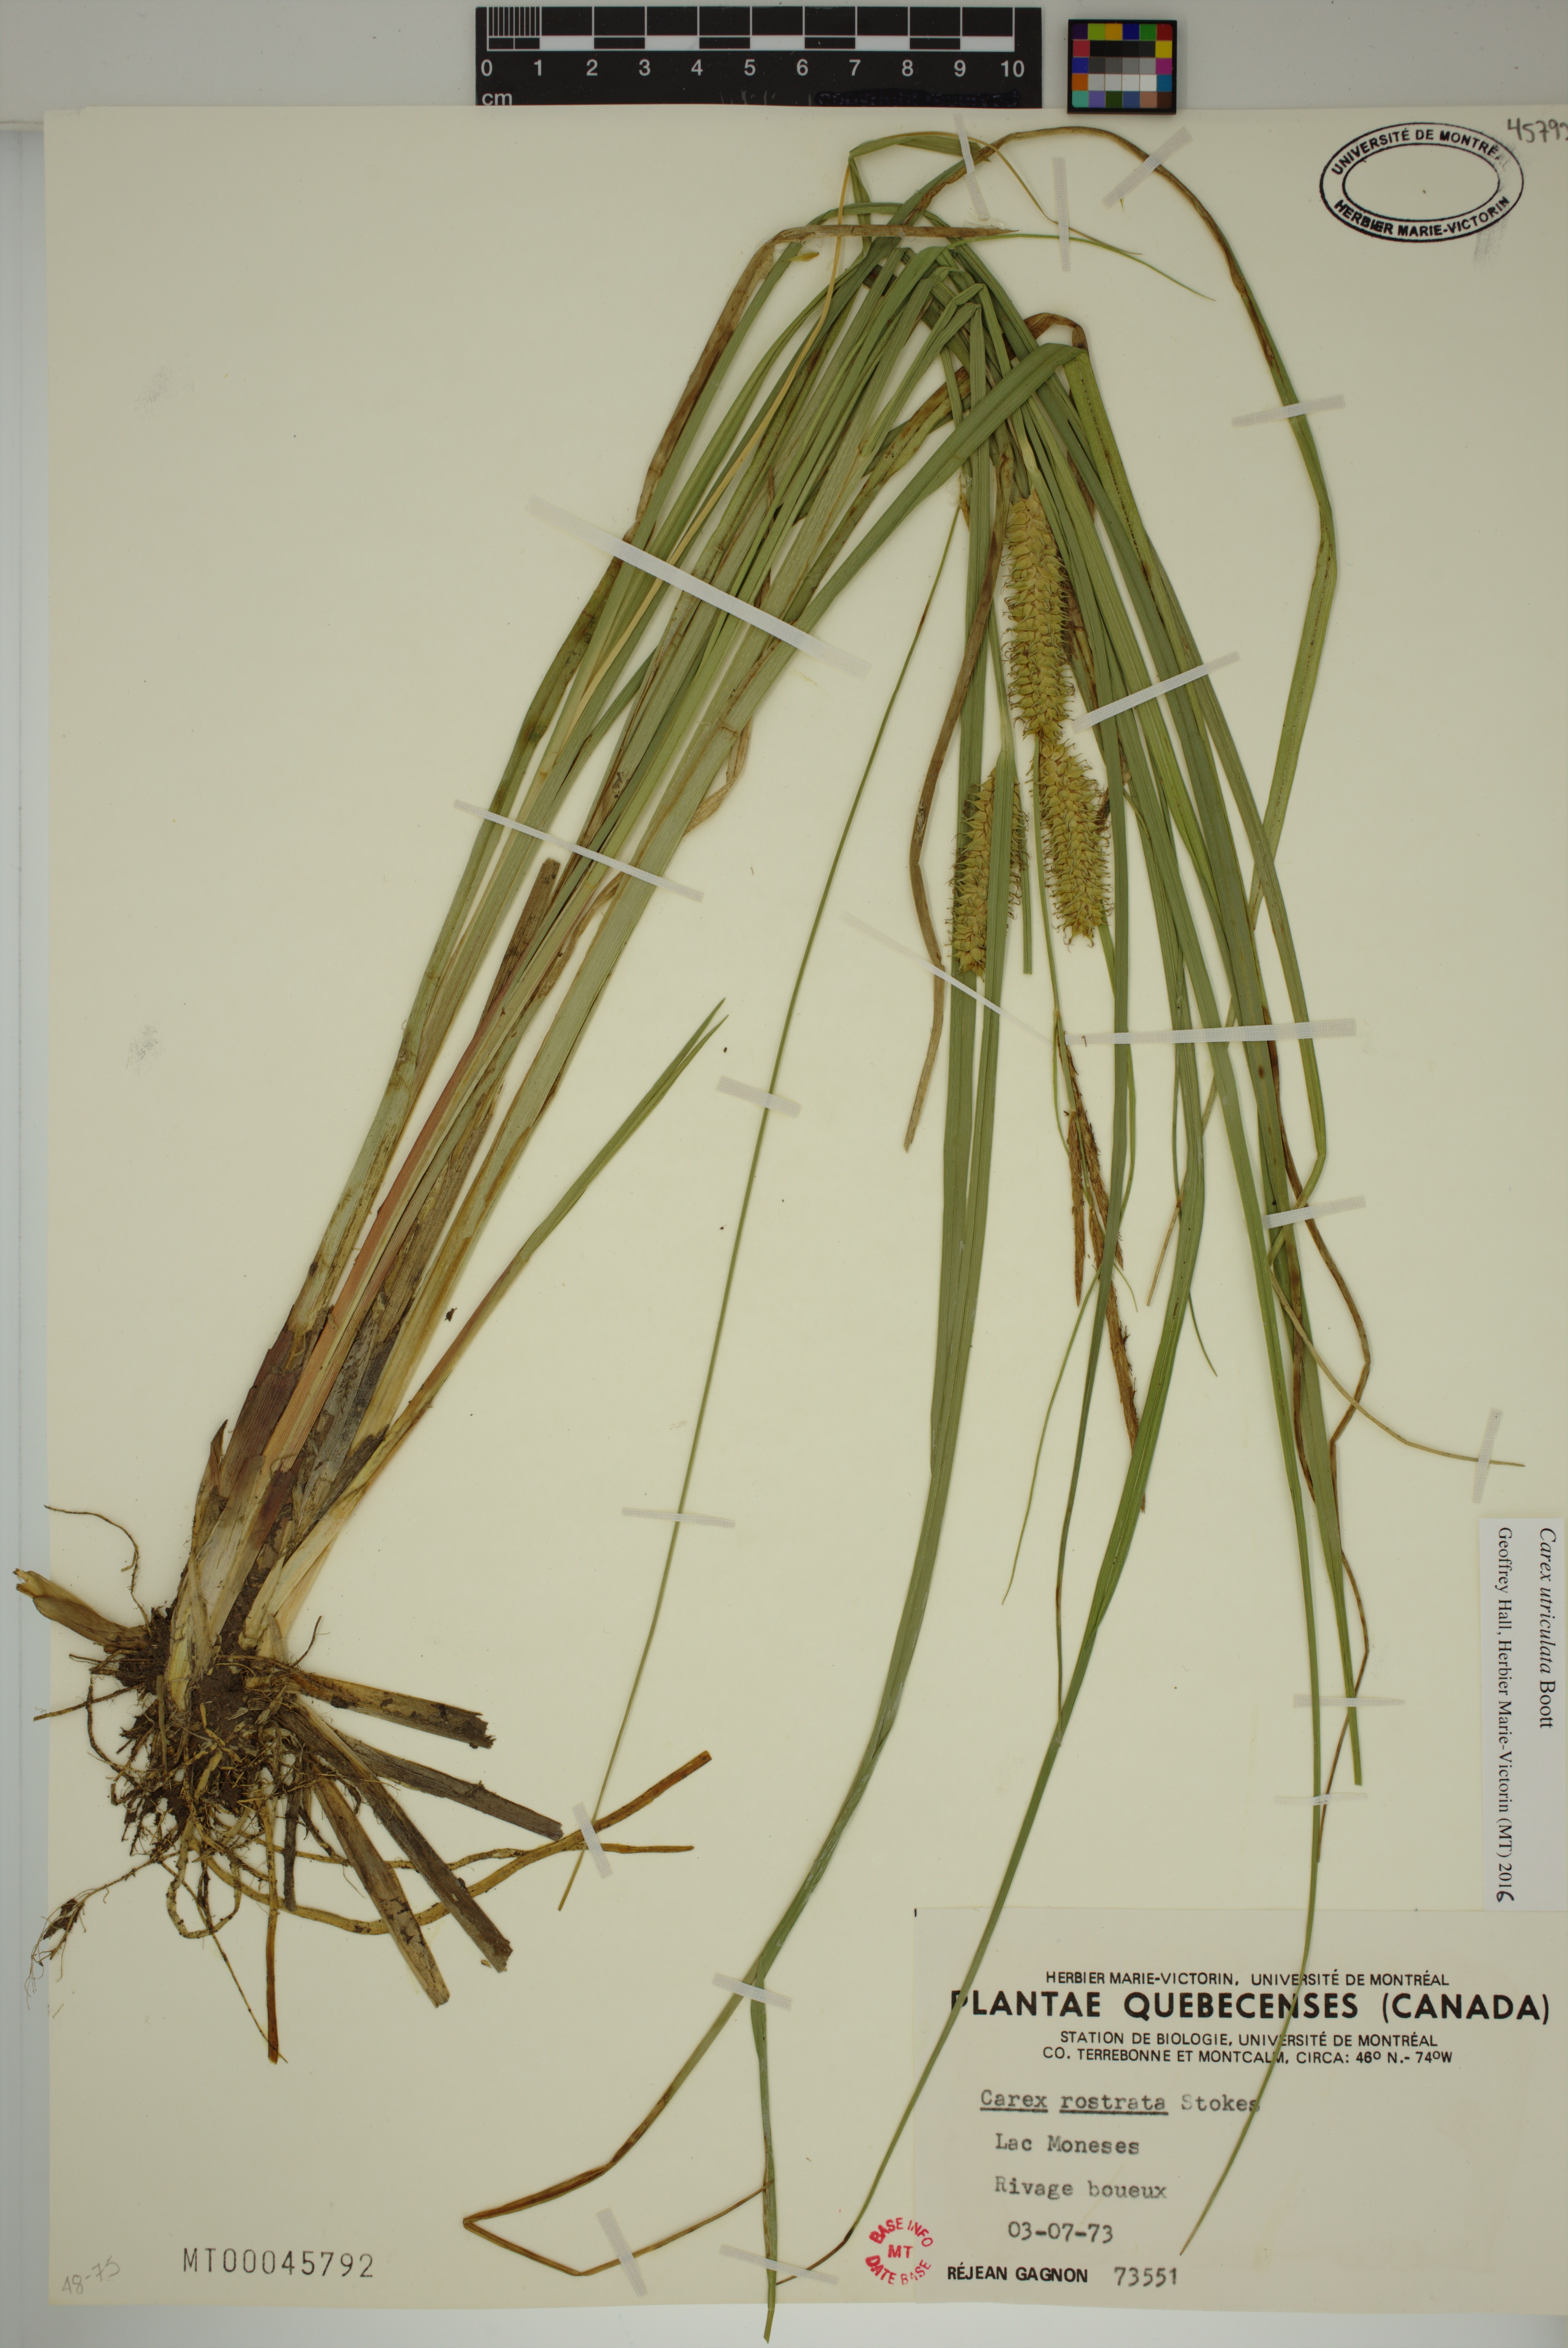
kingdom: Plantae
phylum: Tracheophyta
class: Liliopsida
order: Poales
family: Cyperaceae
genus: Carex
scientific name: Carex utriculata
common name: Beaked sedge
